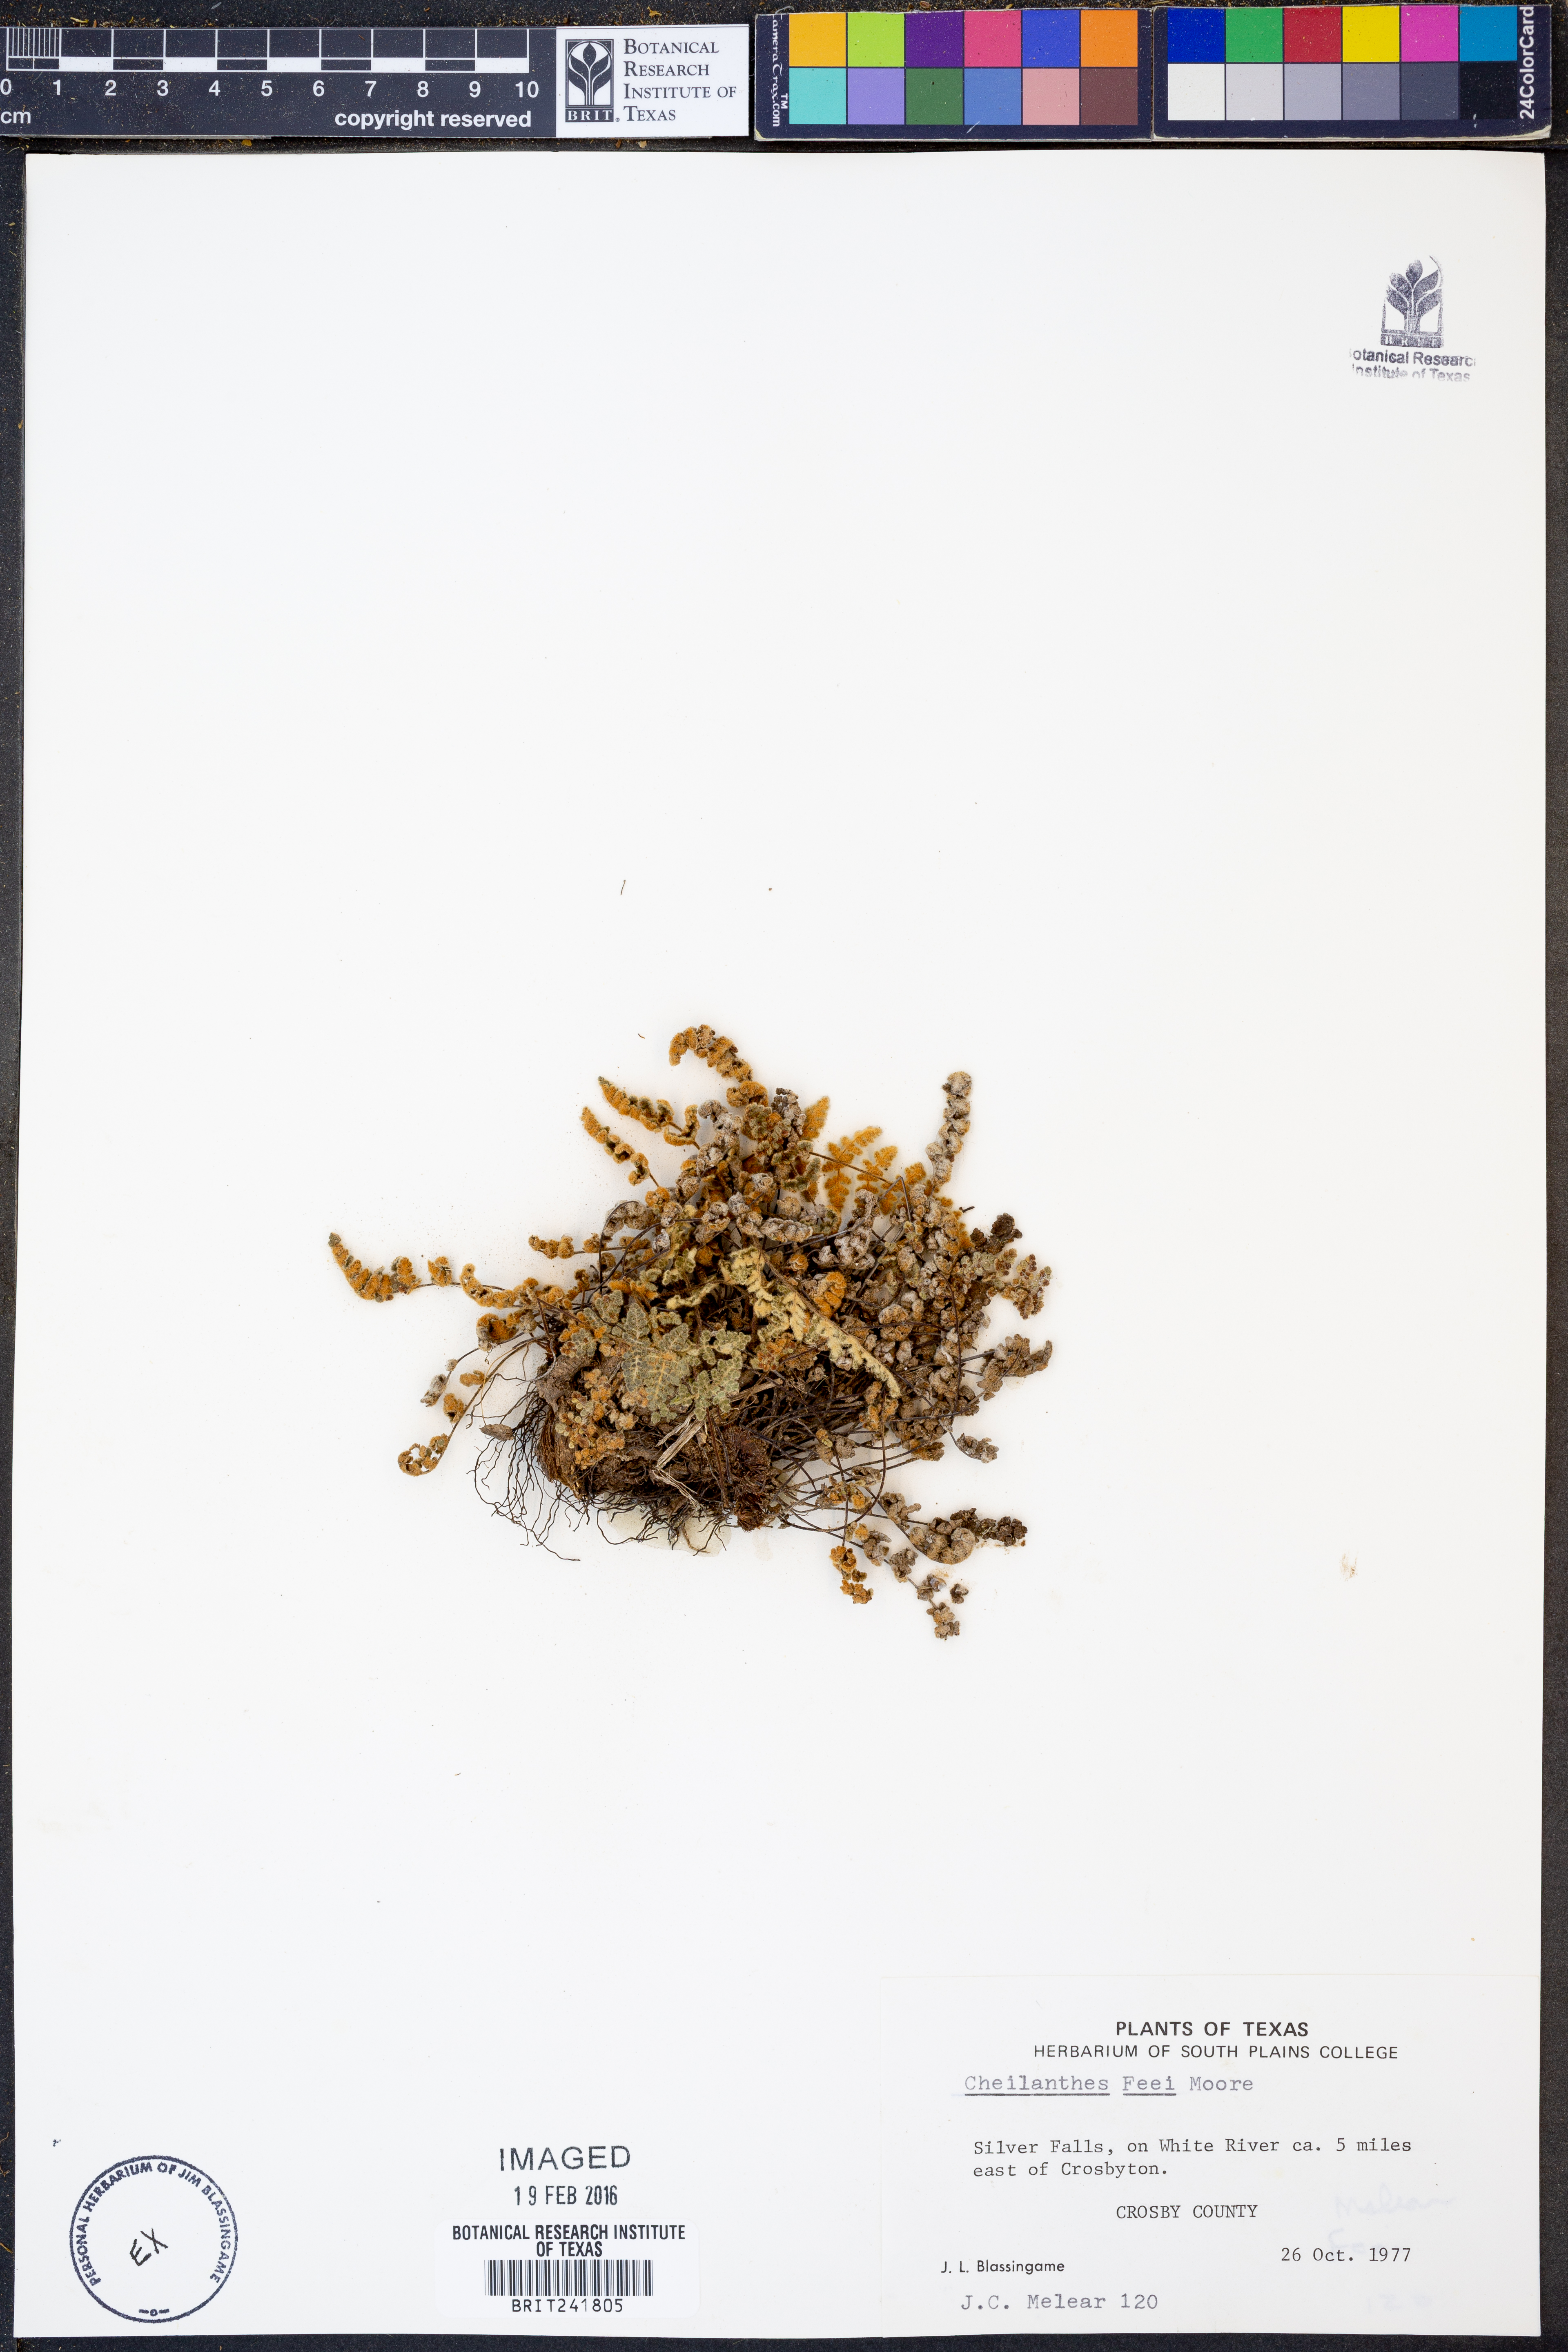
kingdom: Plantae
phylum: Tracheophyta
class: Polypodiopsida
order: Polypodiales
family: Pteridaceae
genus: Myriopteris
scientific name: Myriopteris gracilis
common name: Fee's lip fern
